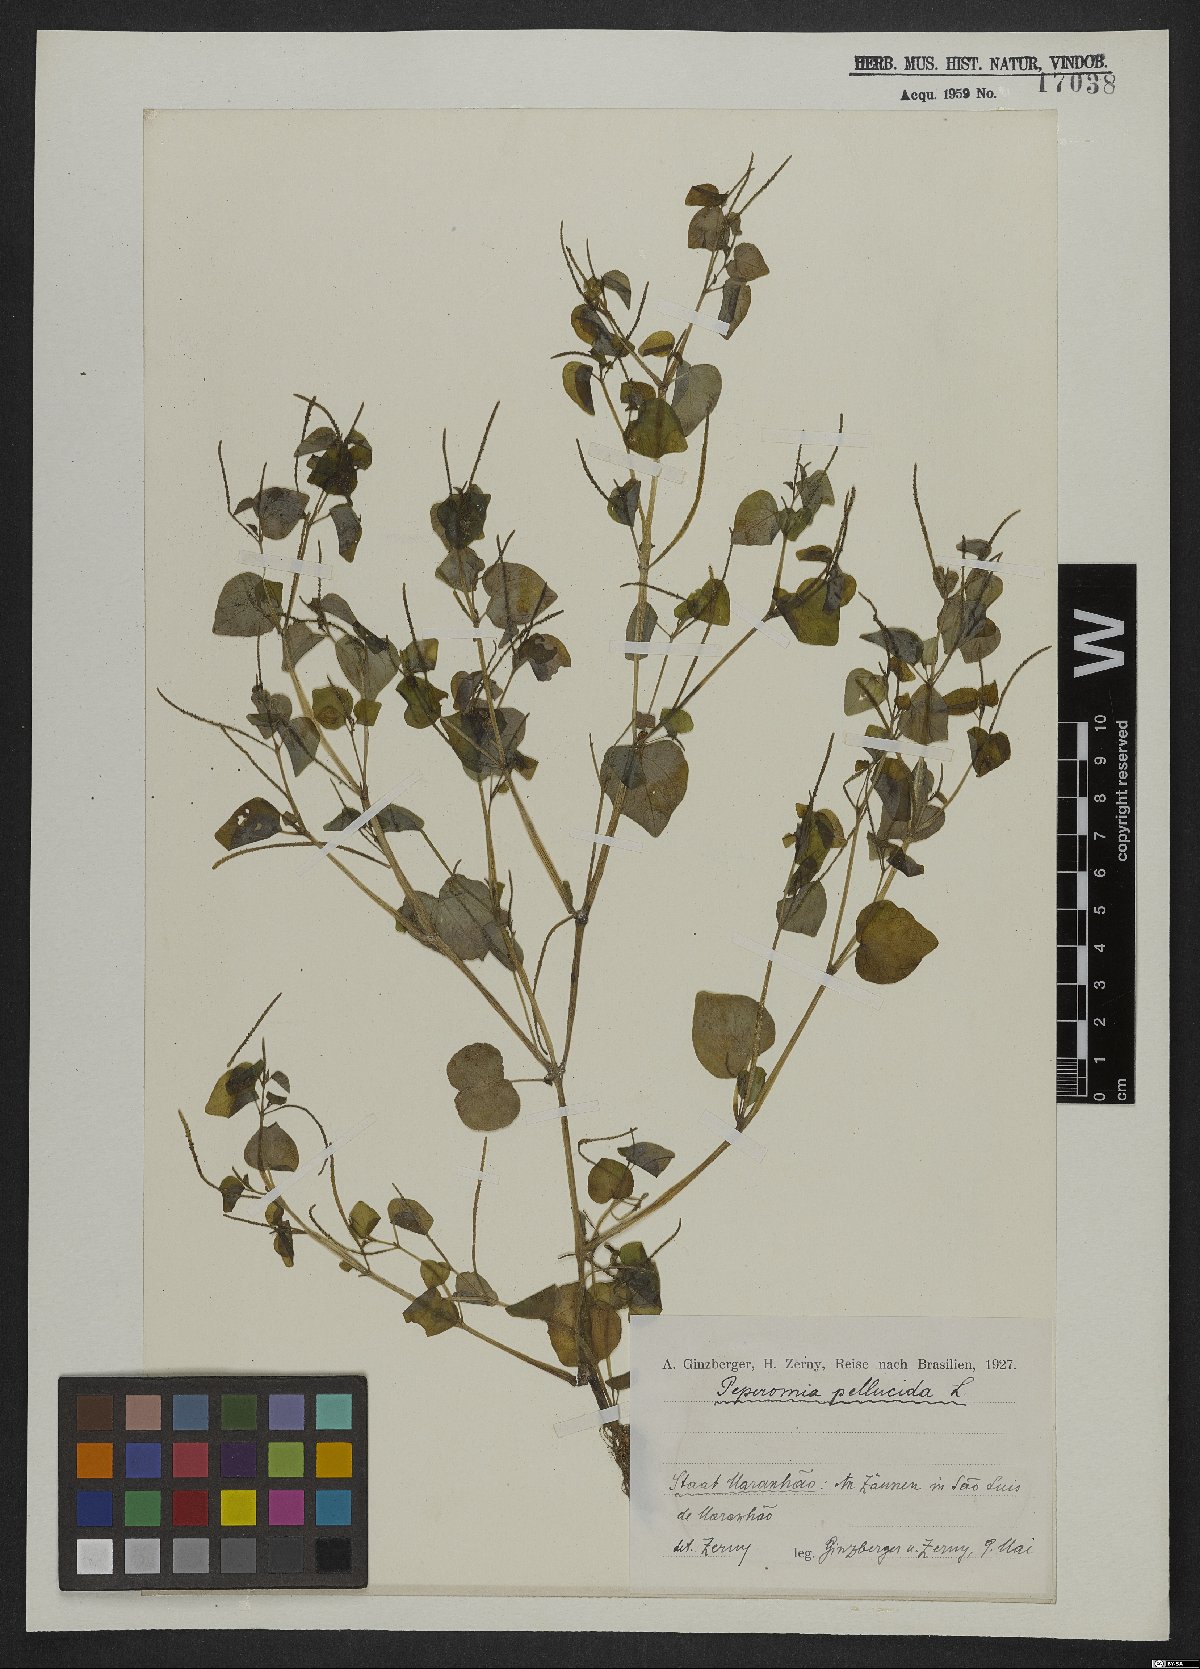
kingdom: Plantae
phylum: Tracheophyta
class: Magnoliopsida
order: Piperales
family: Piperaceae
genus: Peperomia
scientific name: Peperomia pellucida
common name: Man to man
